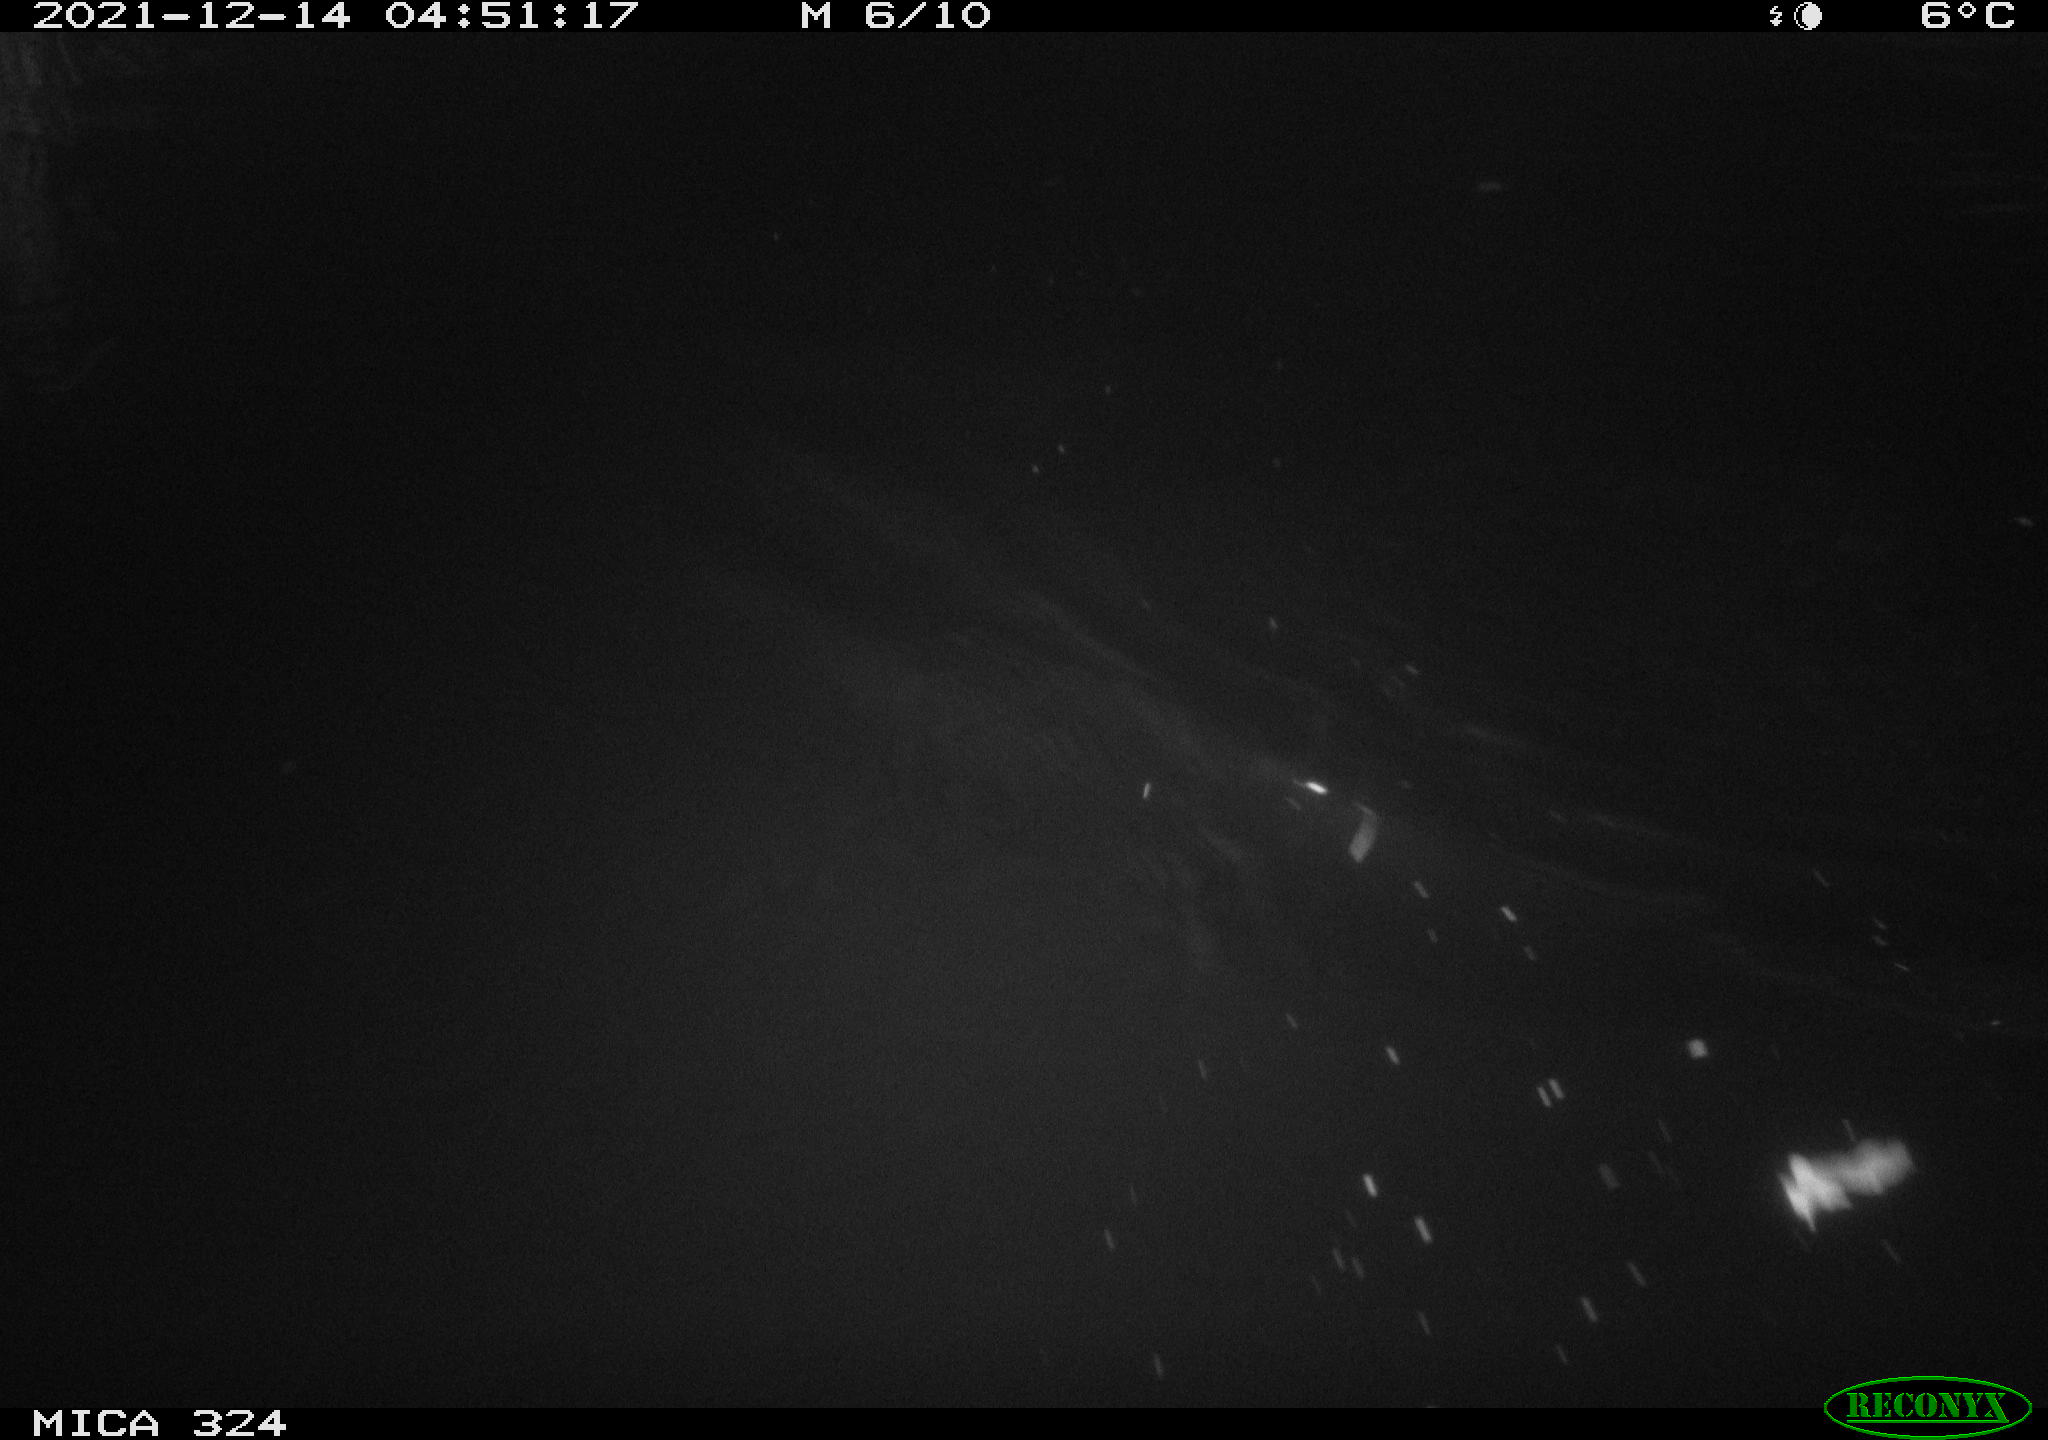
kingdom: Animalia
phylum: Chordata
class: Mammalia
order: Rodentia
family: Cricetidae
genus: Ondatra
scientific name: Ondatra zibethicus
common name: Muskrat
